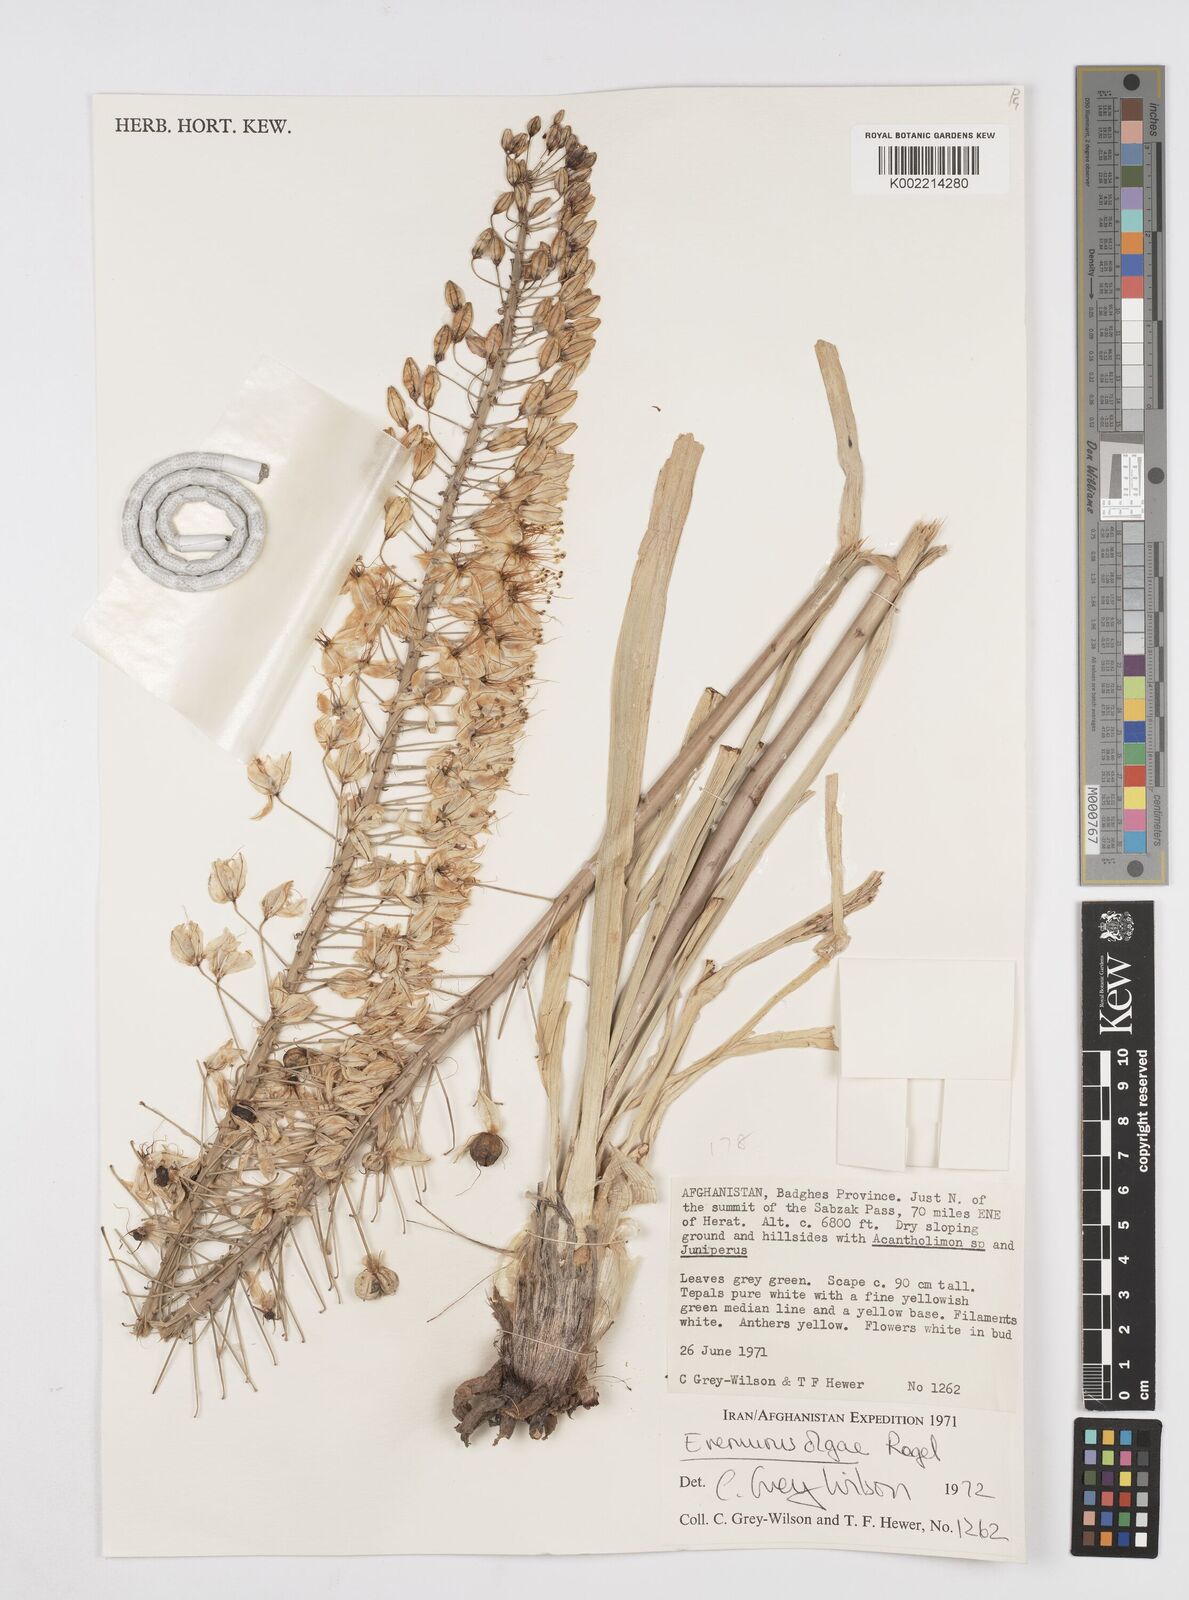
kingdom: Plantae
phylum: Tracheophyta
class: Liliopsida
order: Asparagales
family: Asphodelaceae
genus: Eremurus
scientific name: Eremurus olgae
